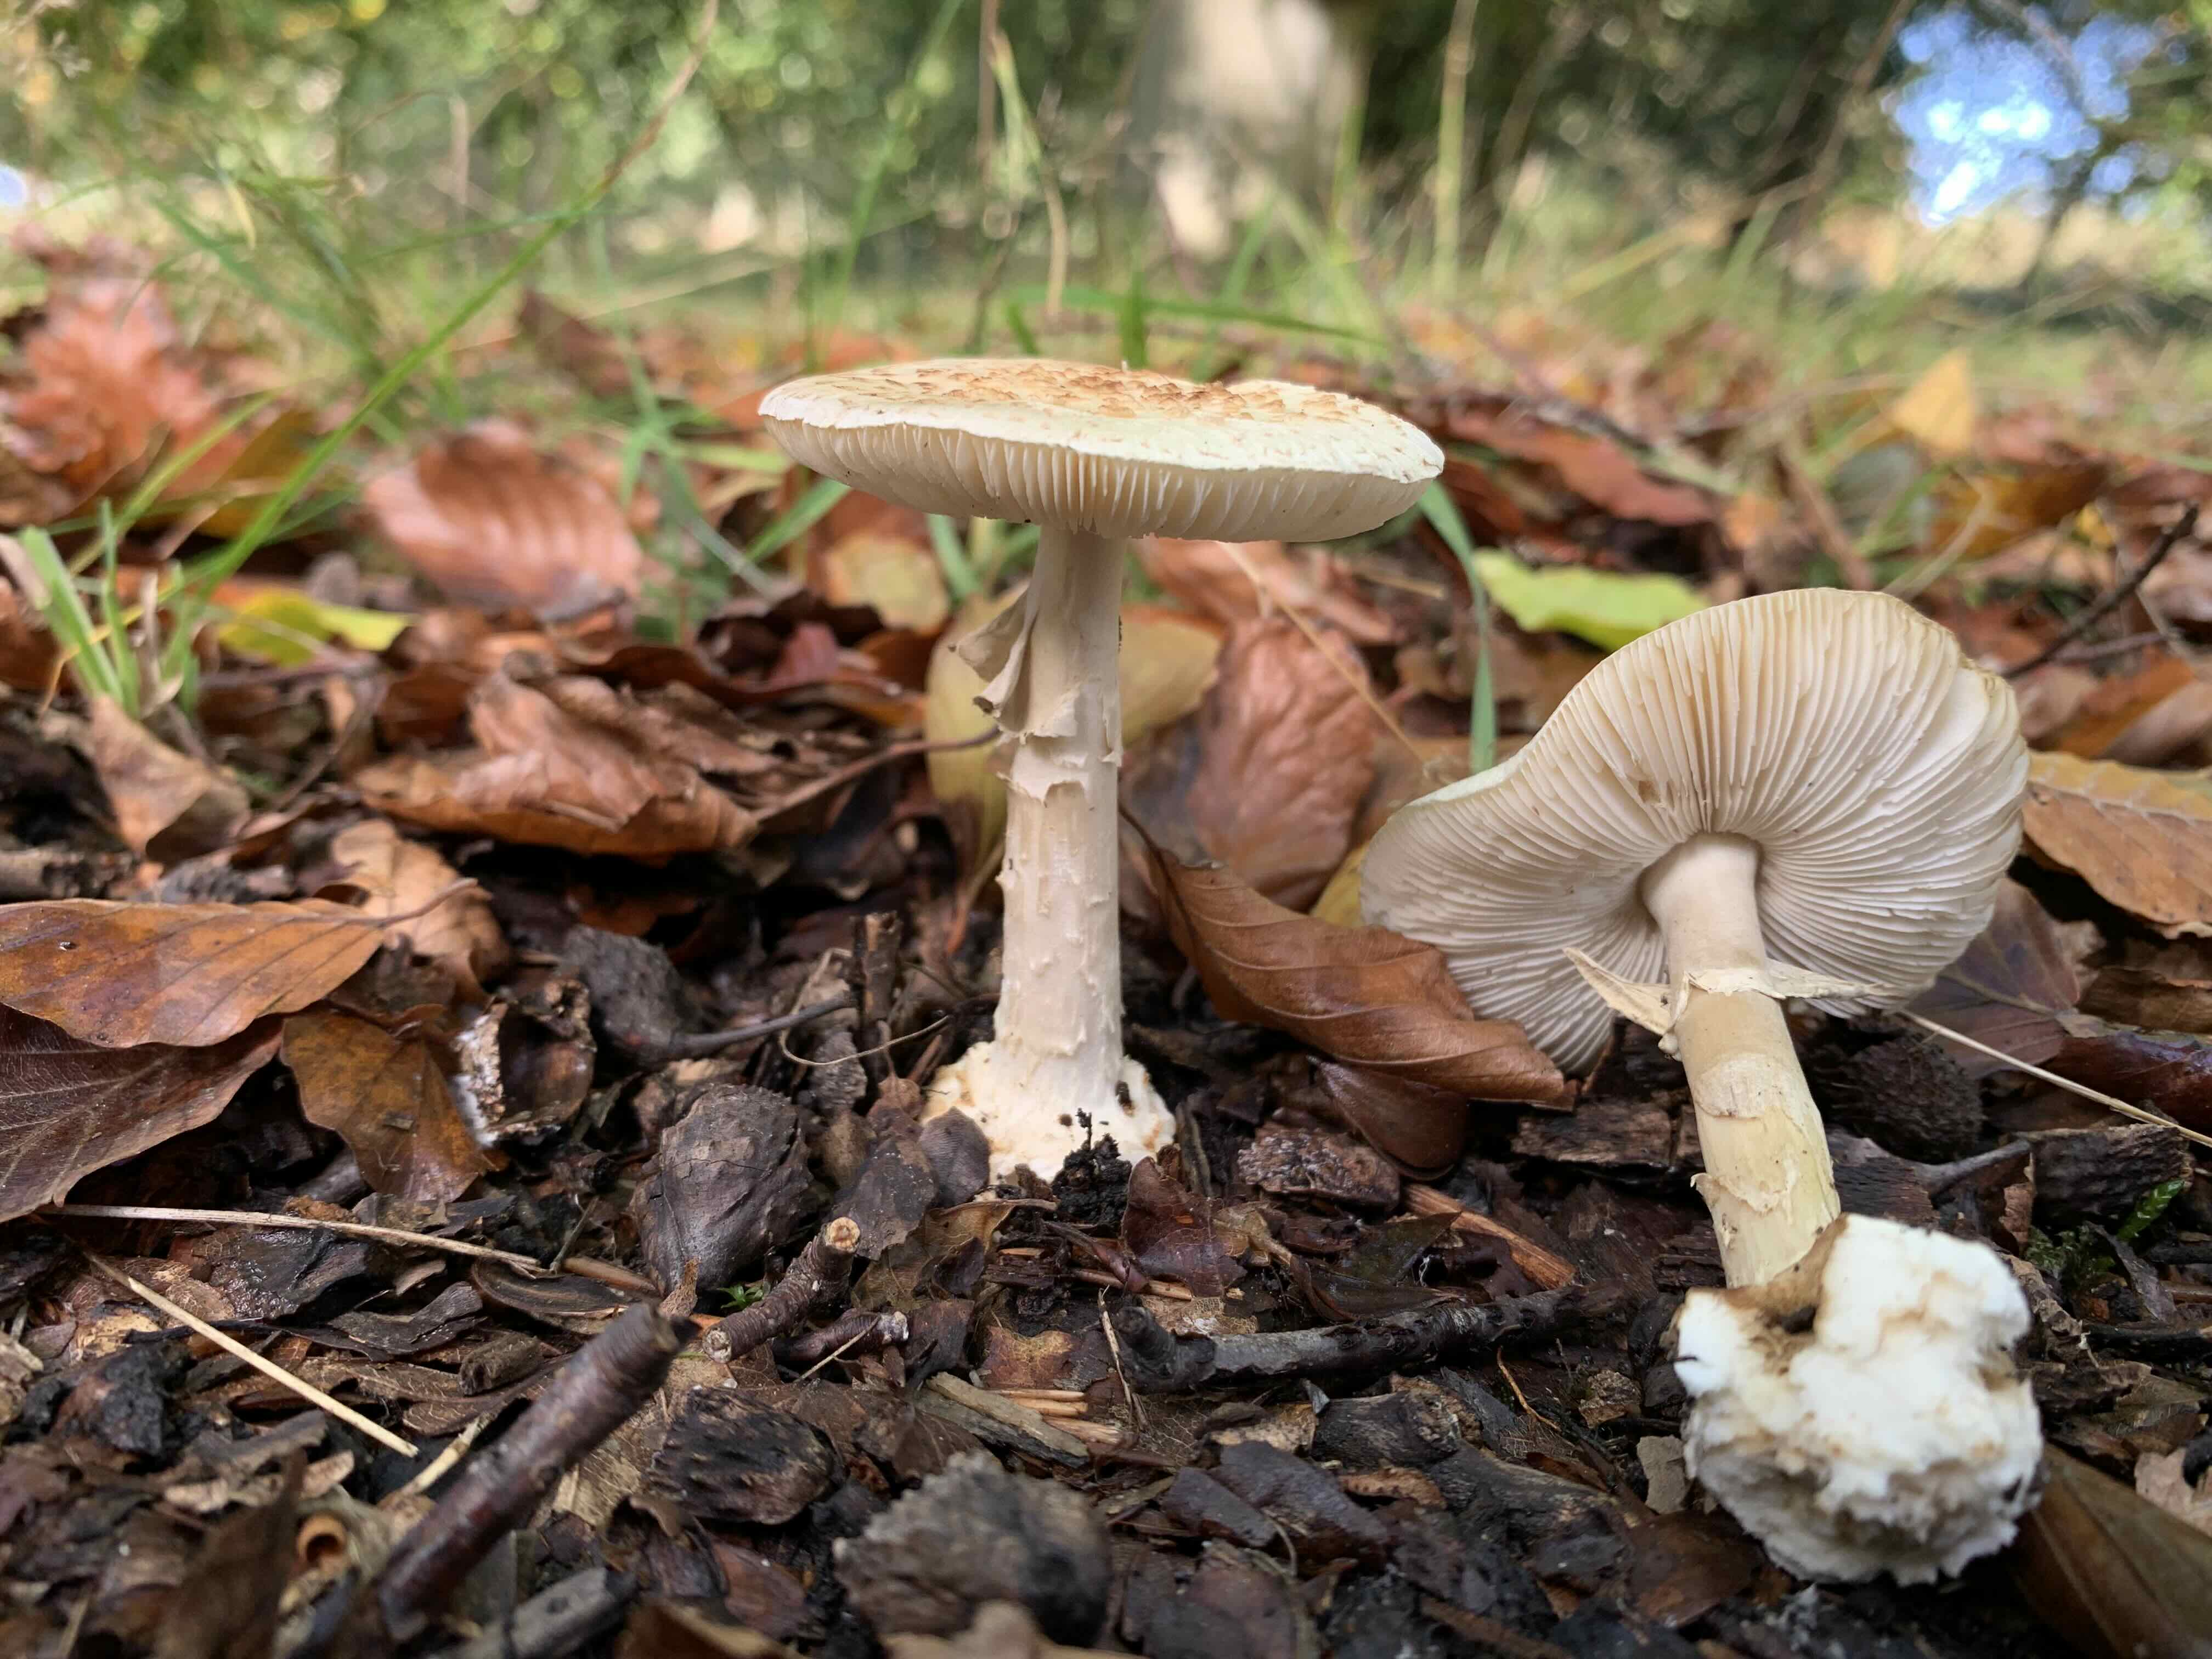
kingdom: Fungi
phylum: Basidiomycota
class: Agaricomycetes
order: Agaricales
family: Amanitaceae
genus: Amanita
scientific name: Amanita citrina
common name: kugleknoldet fluesvamp
